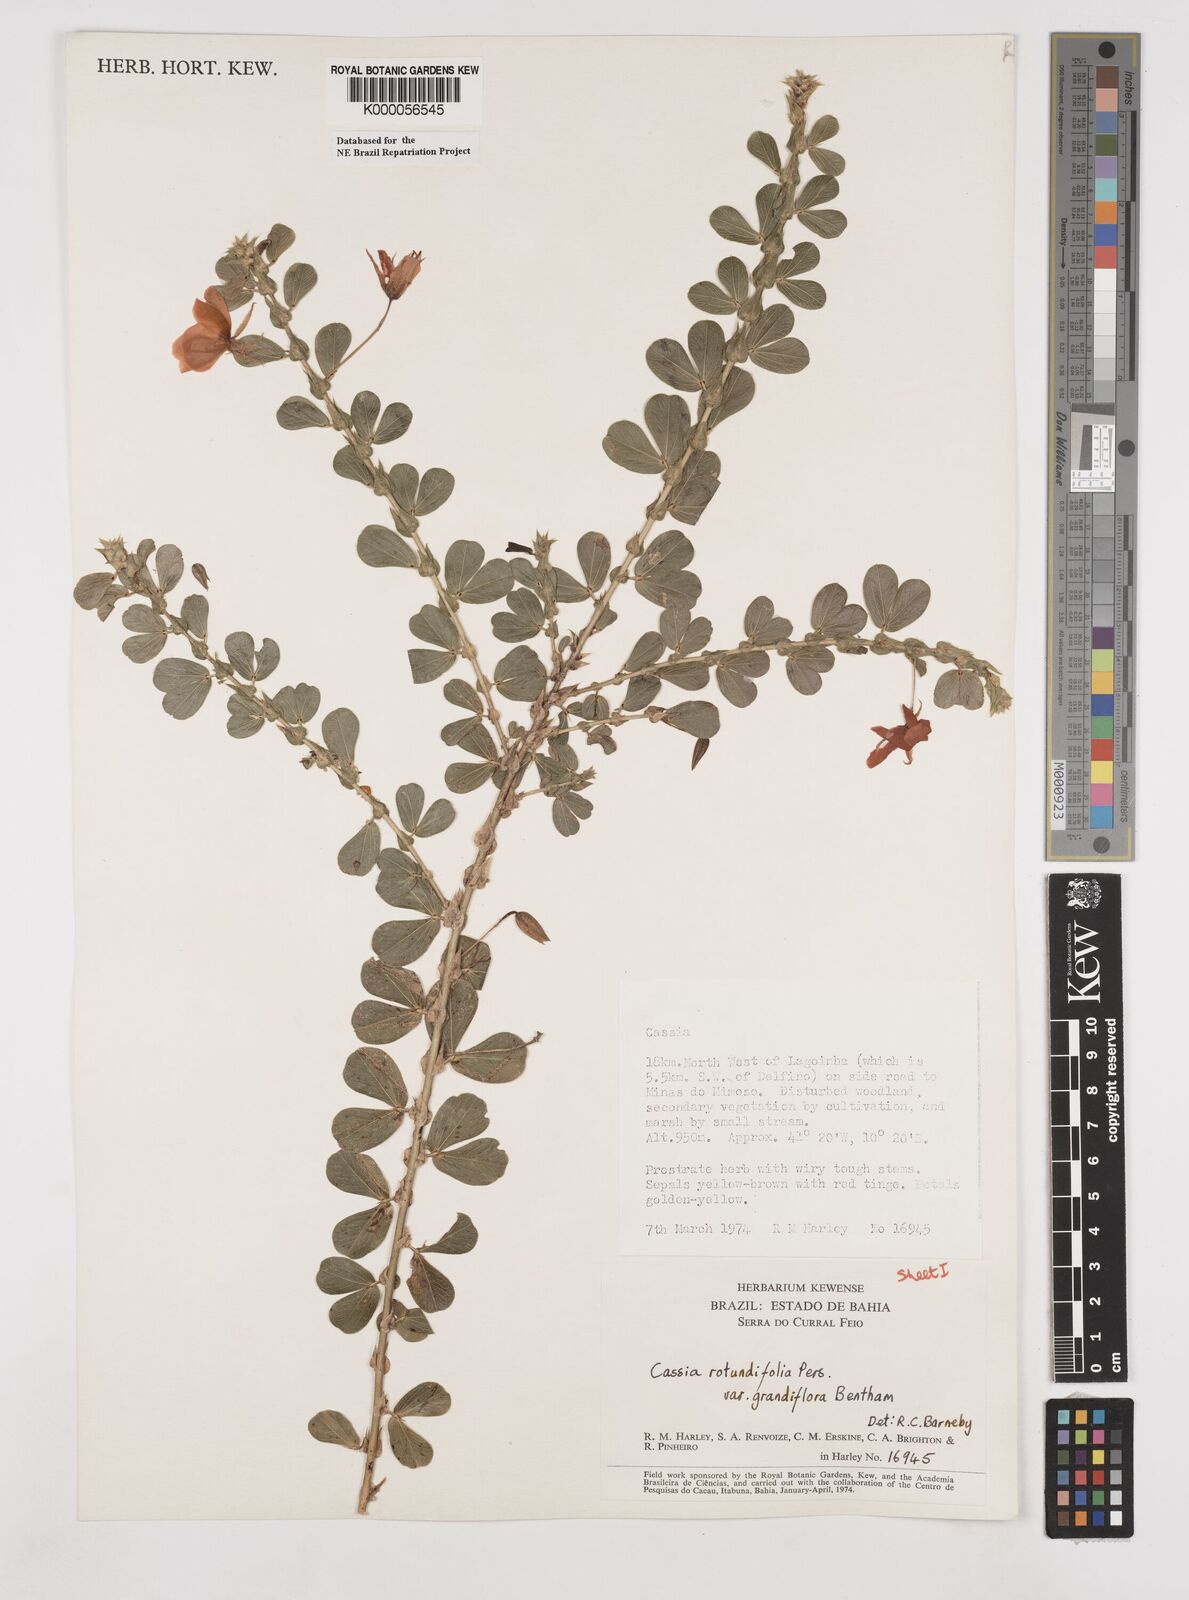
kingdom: Plantae
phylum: Tracheophyta
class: Magnoliopsida
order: Fabales
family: Fabaceae
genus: Chamaecrista
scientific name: Chamaecrista rotundifolia
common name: Round-leaf cassia
